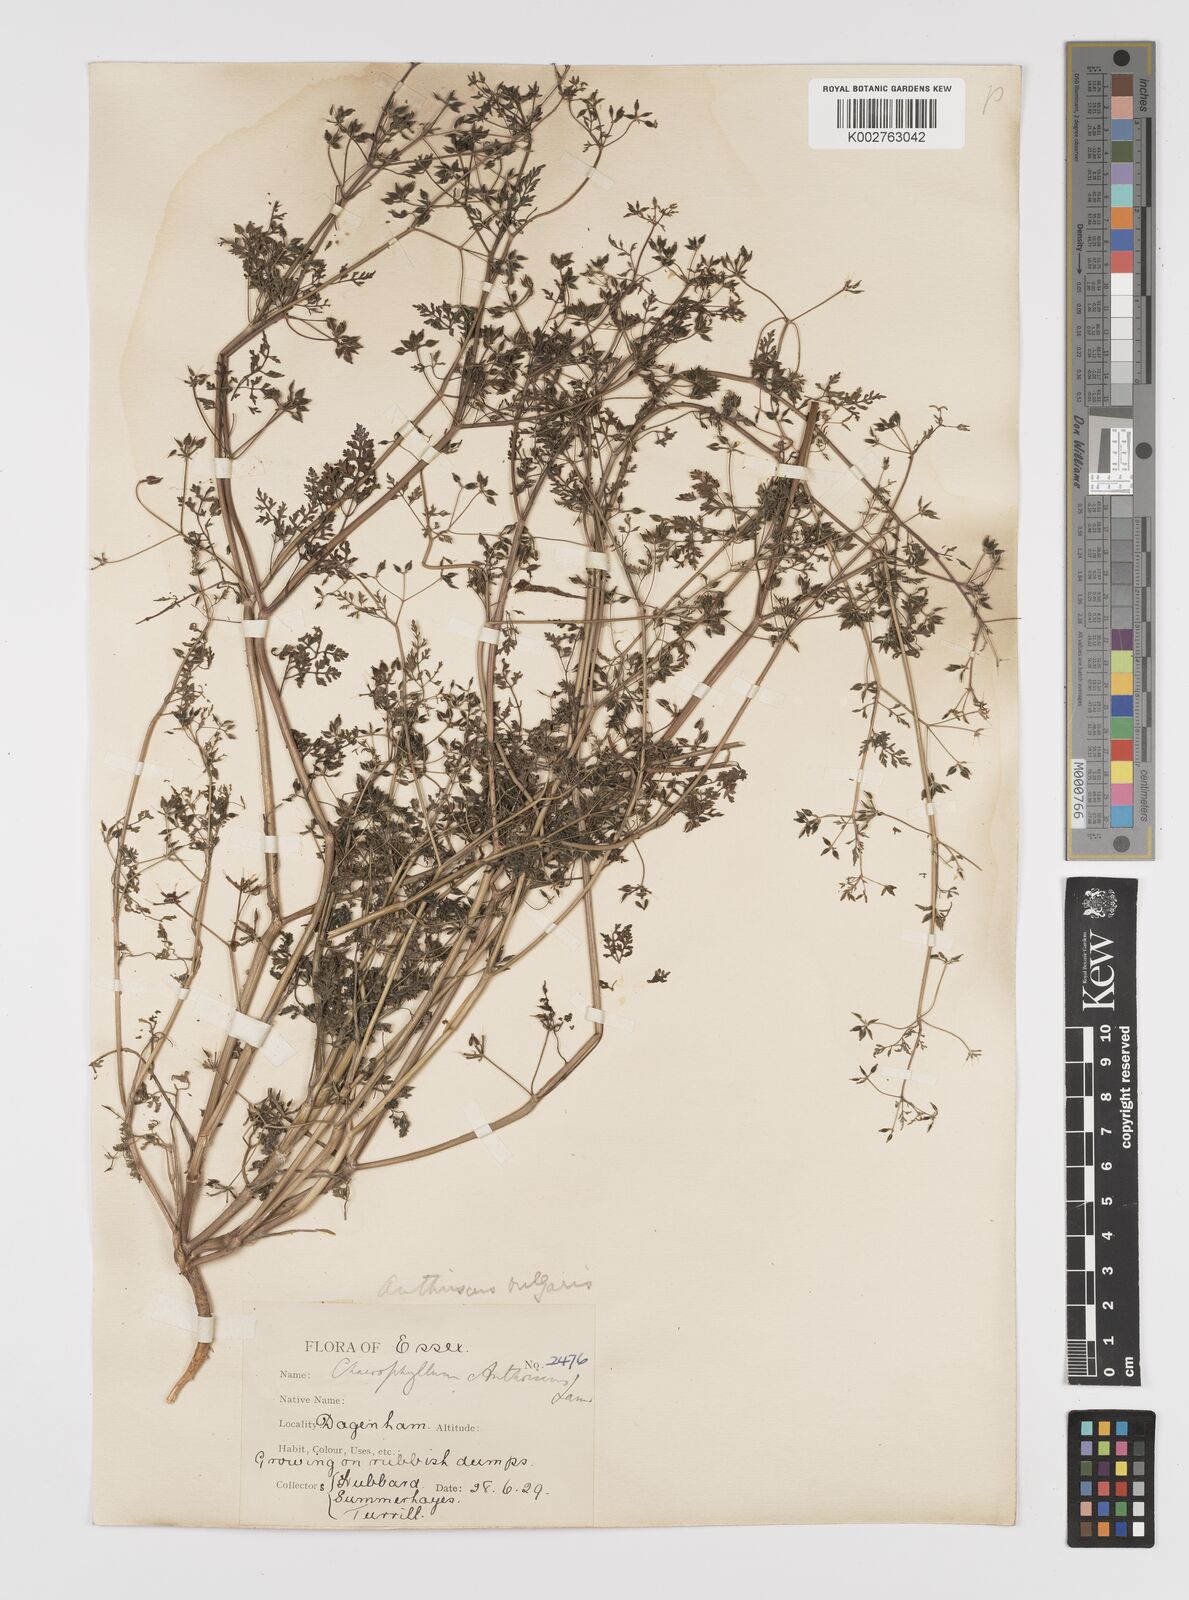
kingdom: Plantae
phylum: Tracheophyta
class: Magnoliopsida
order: Apiales
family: Apiaceae
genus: Anthriscus
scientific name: Anthriscus caucalis
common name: Bur chervil
